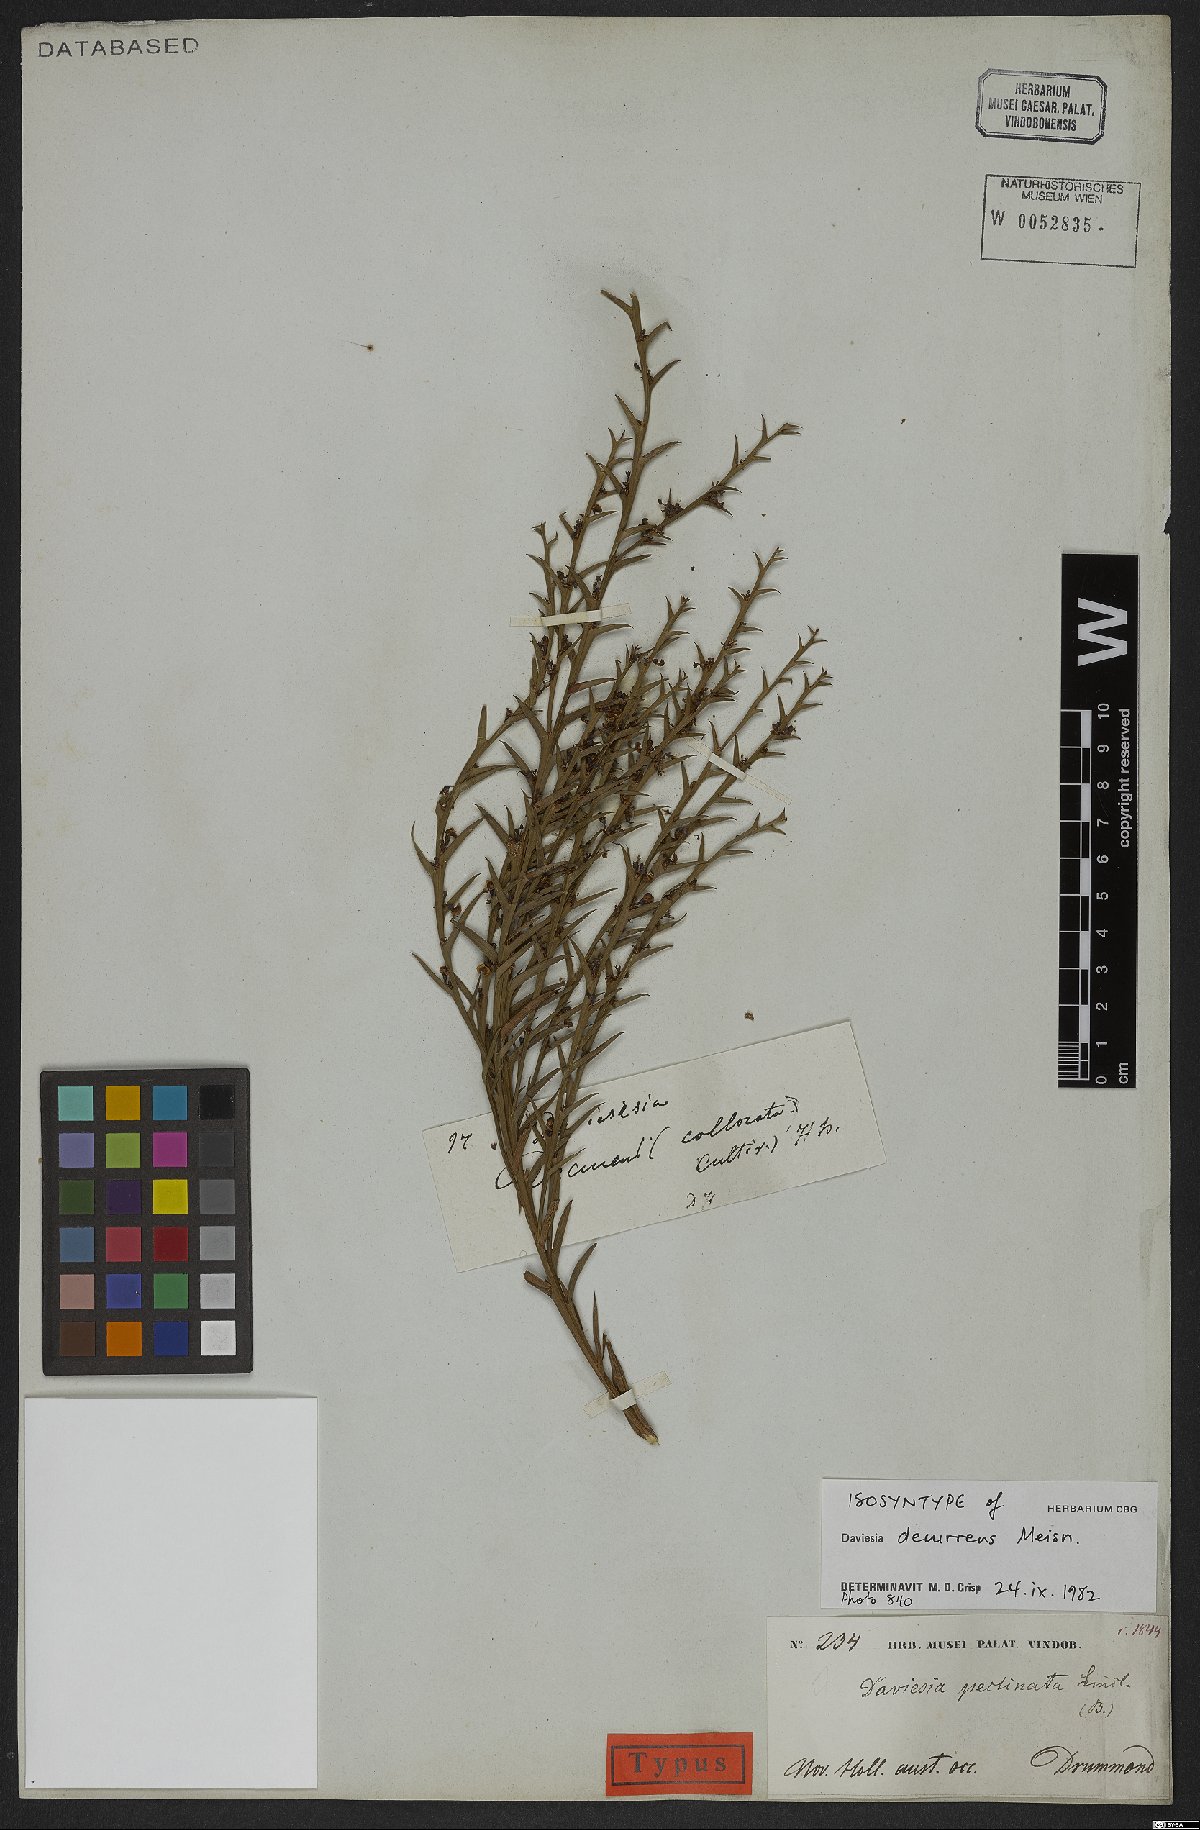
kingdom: Plantae
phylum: Tracheophyta
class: Magnoliopsida
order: Fabales
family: Fabaceae
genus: Daviesia
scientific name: Daviesia decurrens
